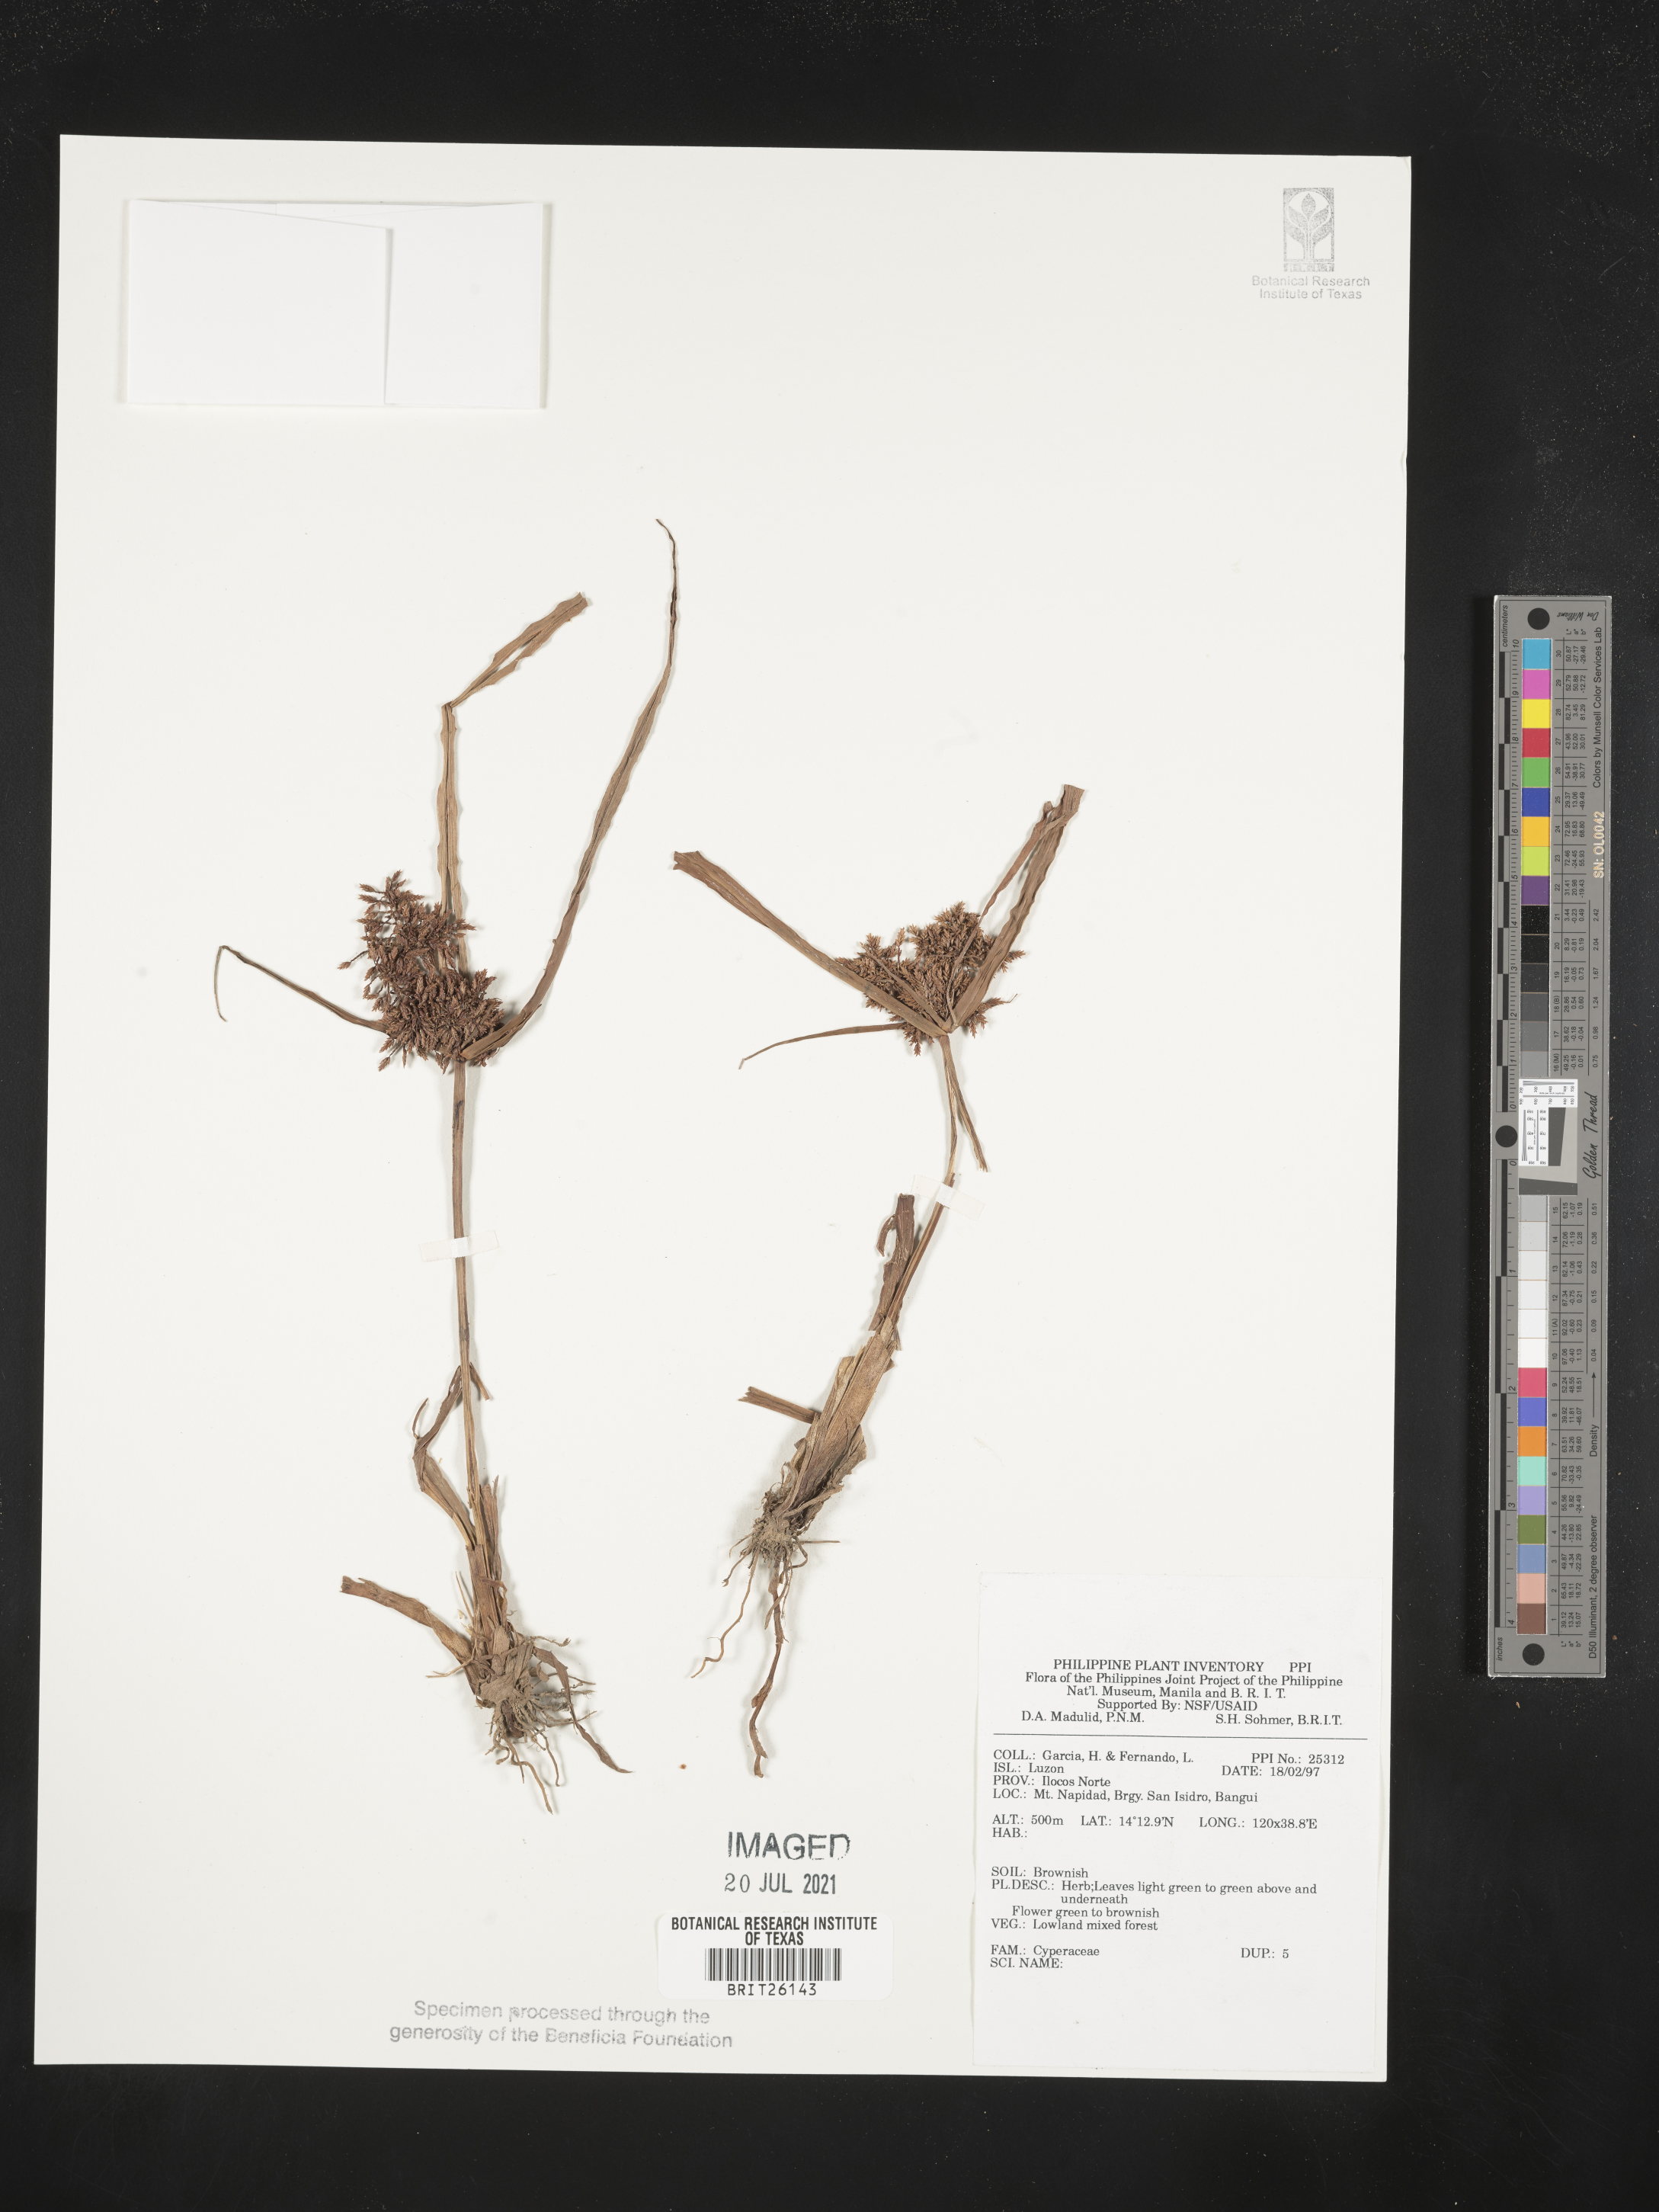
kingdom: Plantae
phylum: Tracheophyta
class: Liliopsida
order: Poales
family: Cyperaceae
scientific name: Cyperaceae
